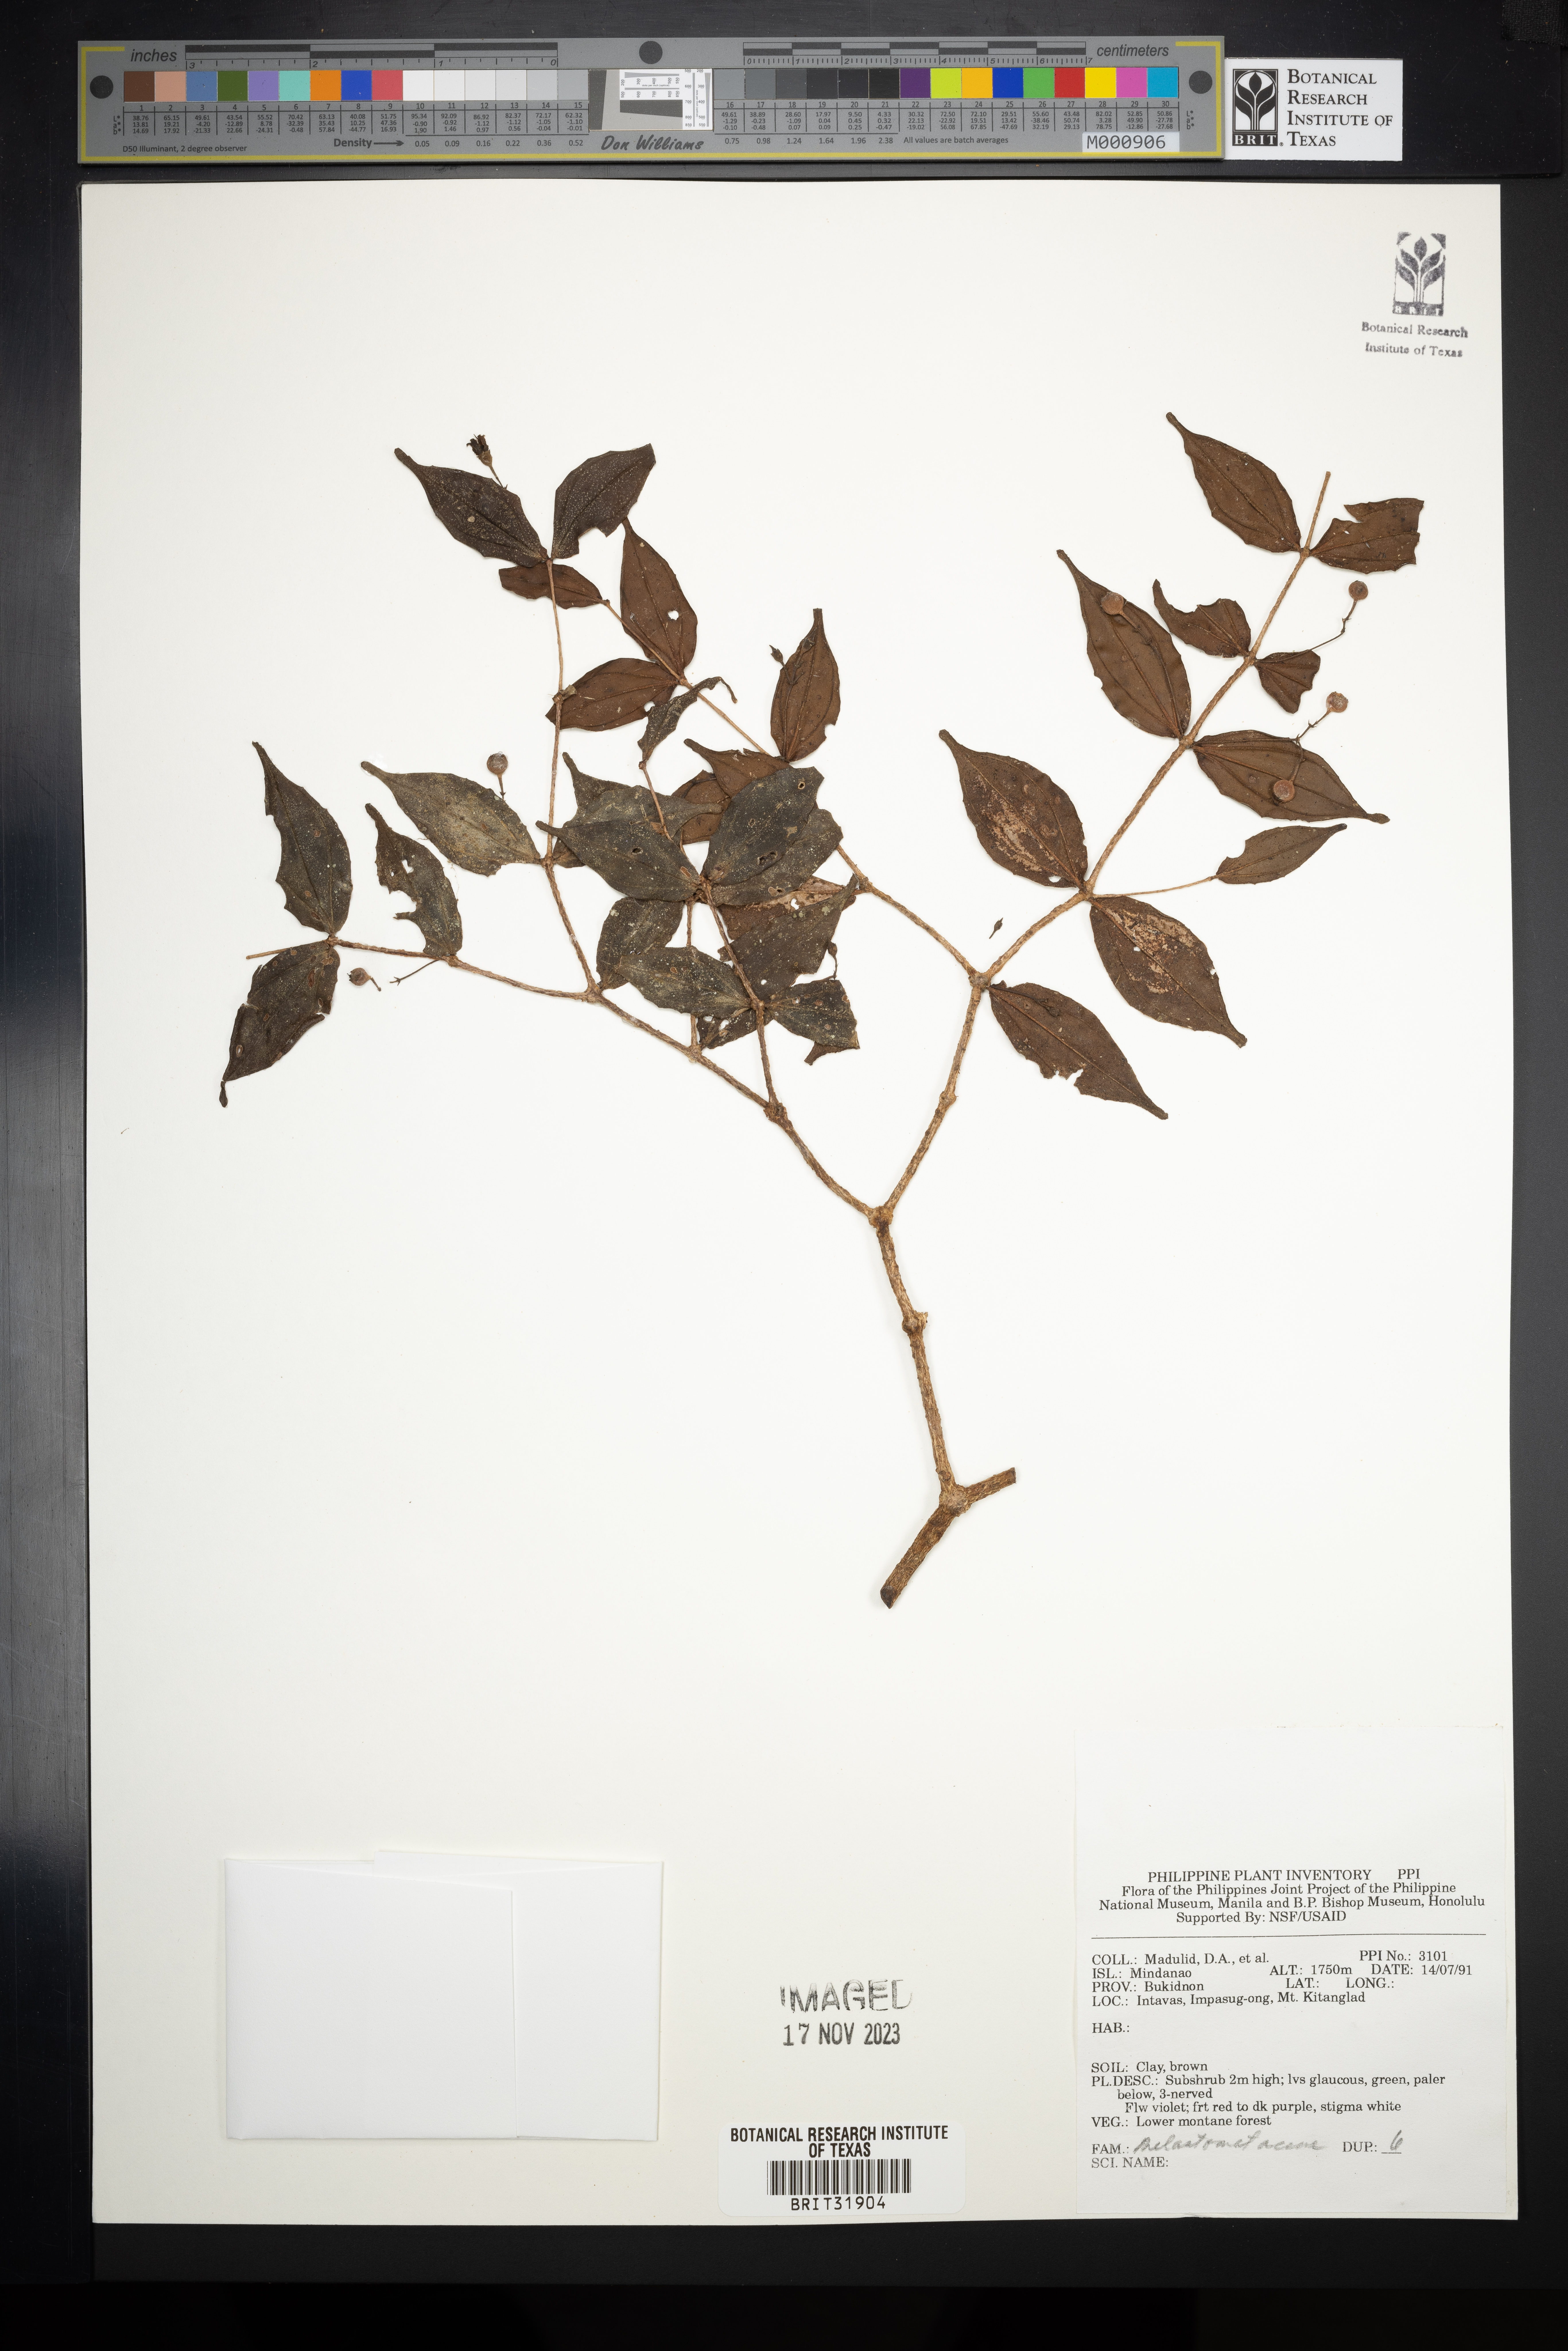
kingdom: Plantae
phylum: Tracheophyta
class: Magnoliopsida
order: Myrtales
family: Melastomataceae
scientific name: Melastomataceae
